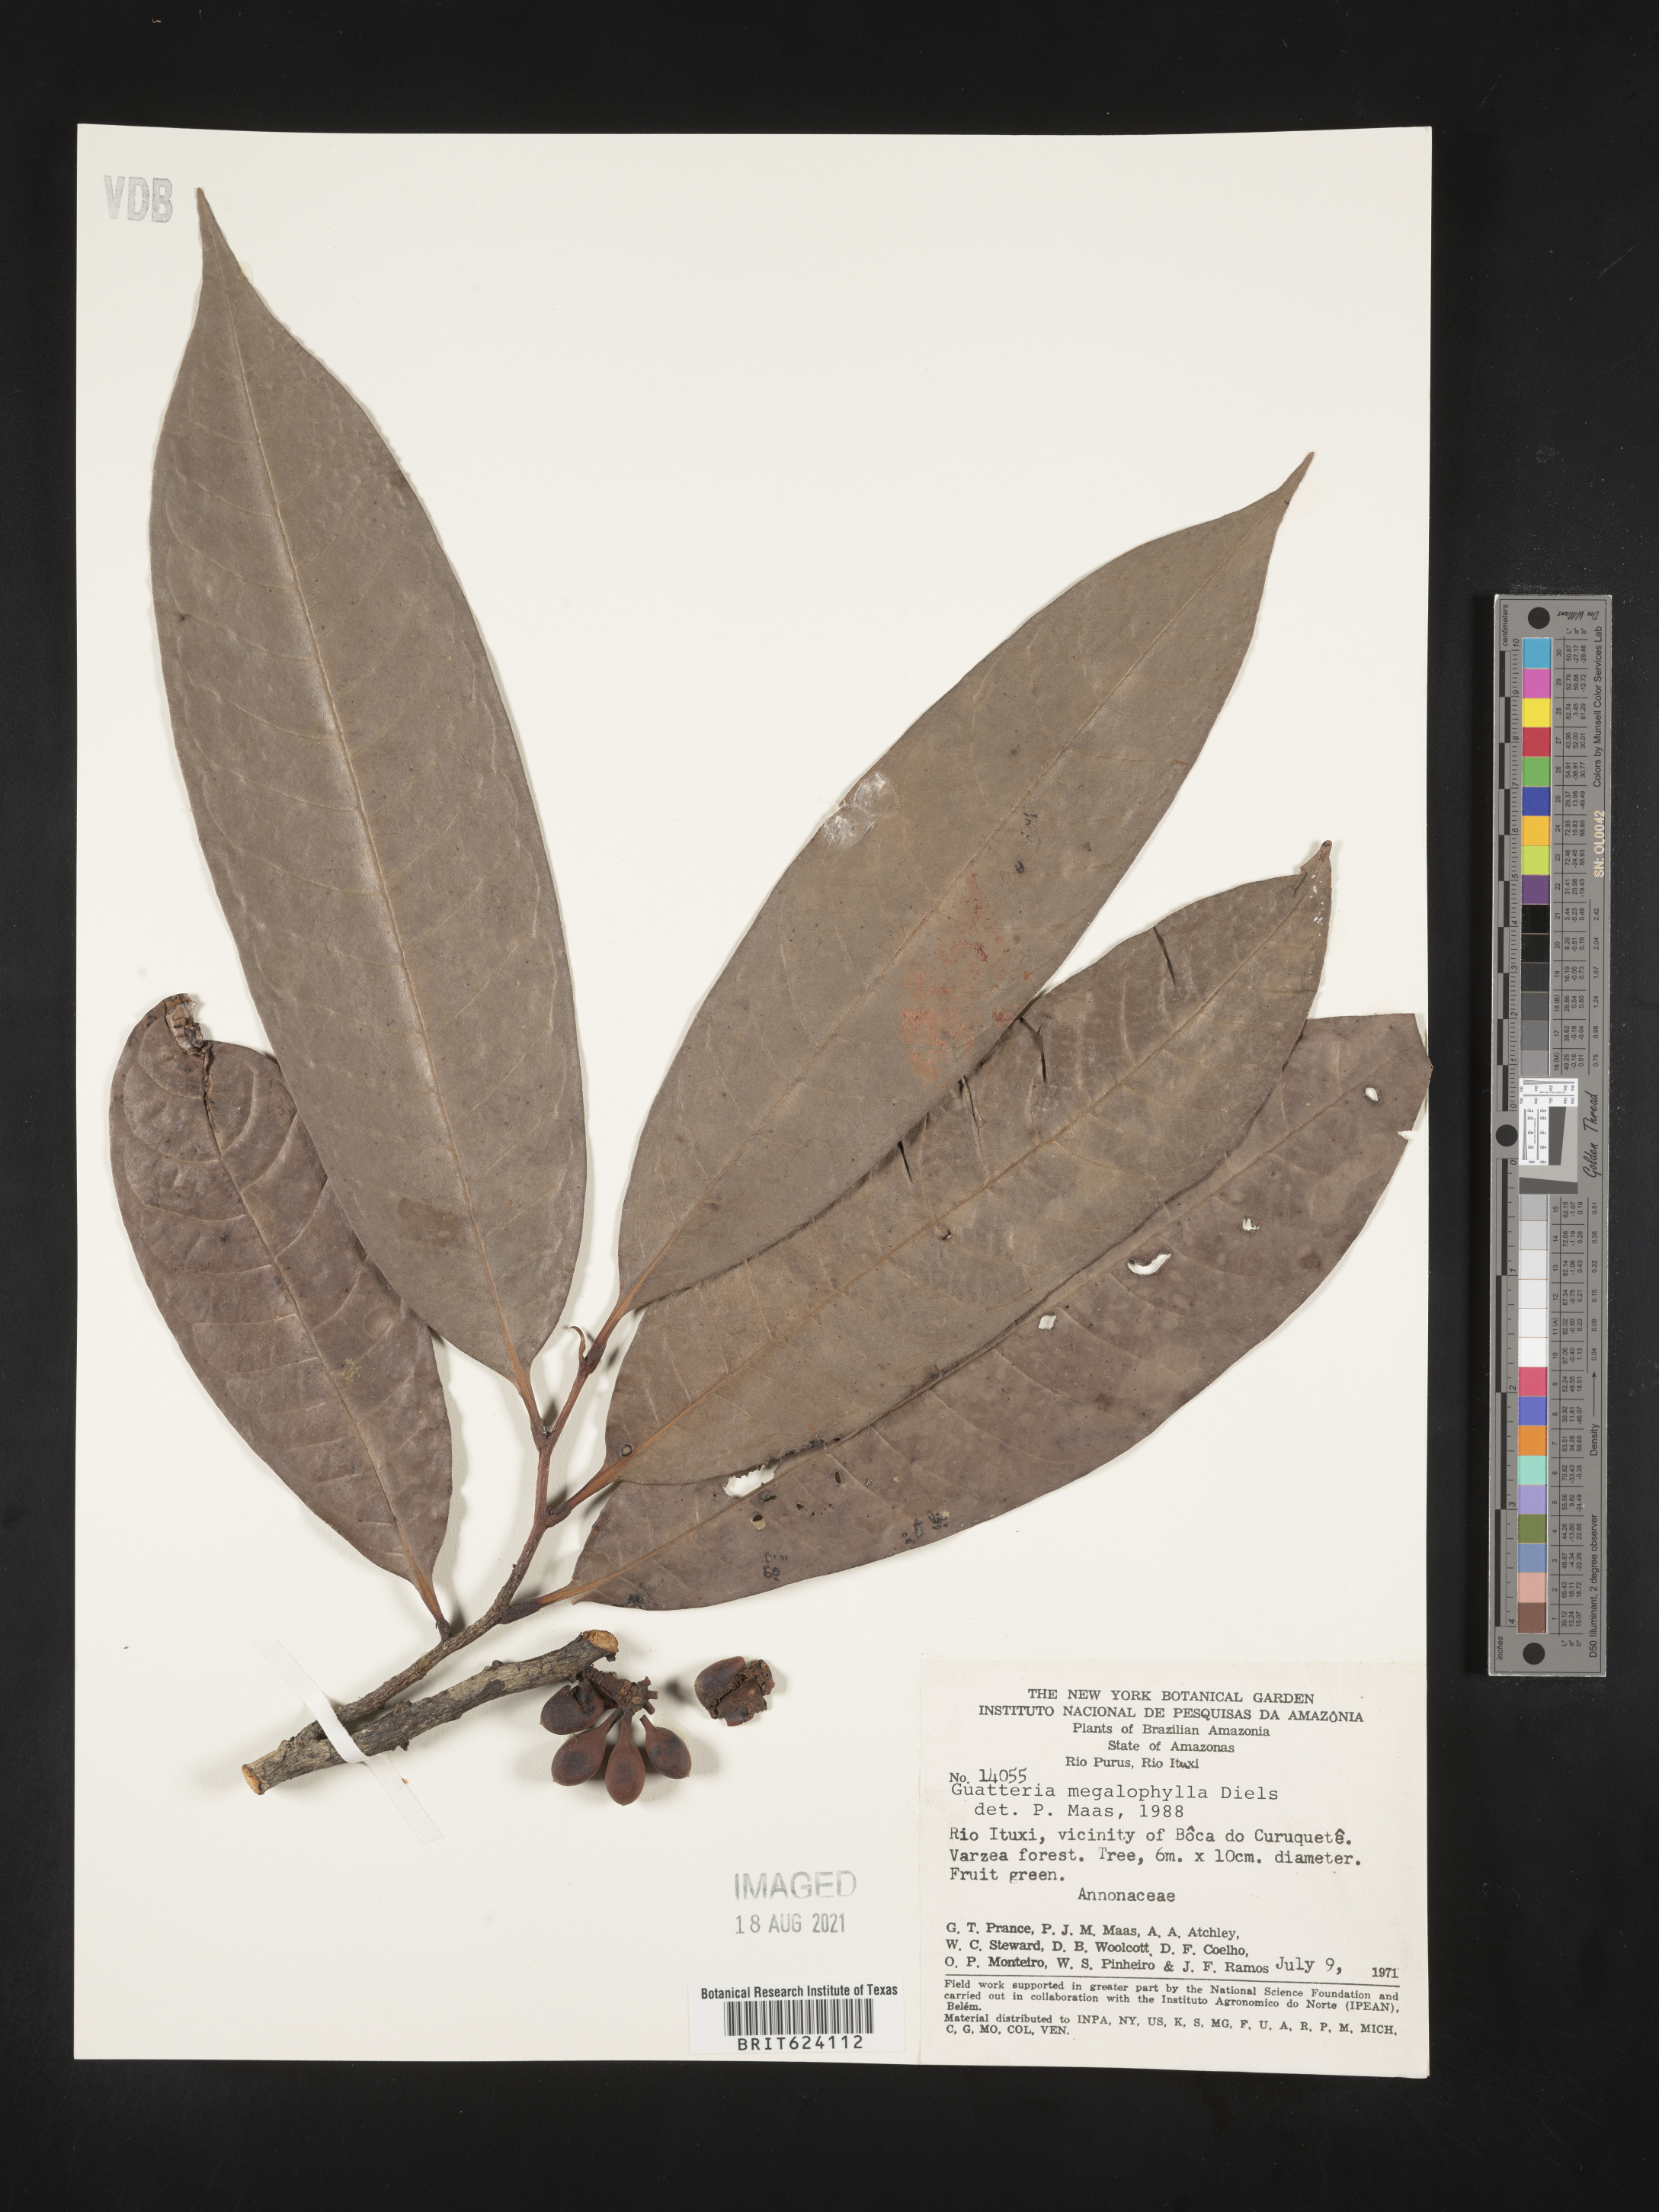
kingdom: Plantae
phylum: Tracheophyta
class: Magnoliopsida
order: Magnoliales
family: Annonaceae
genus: Guatteria
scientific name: Guatteria megalophylla
